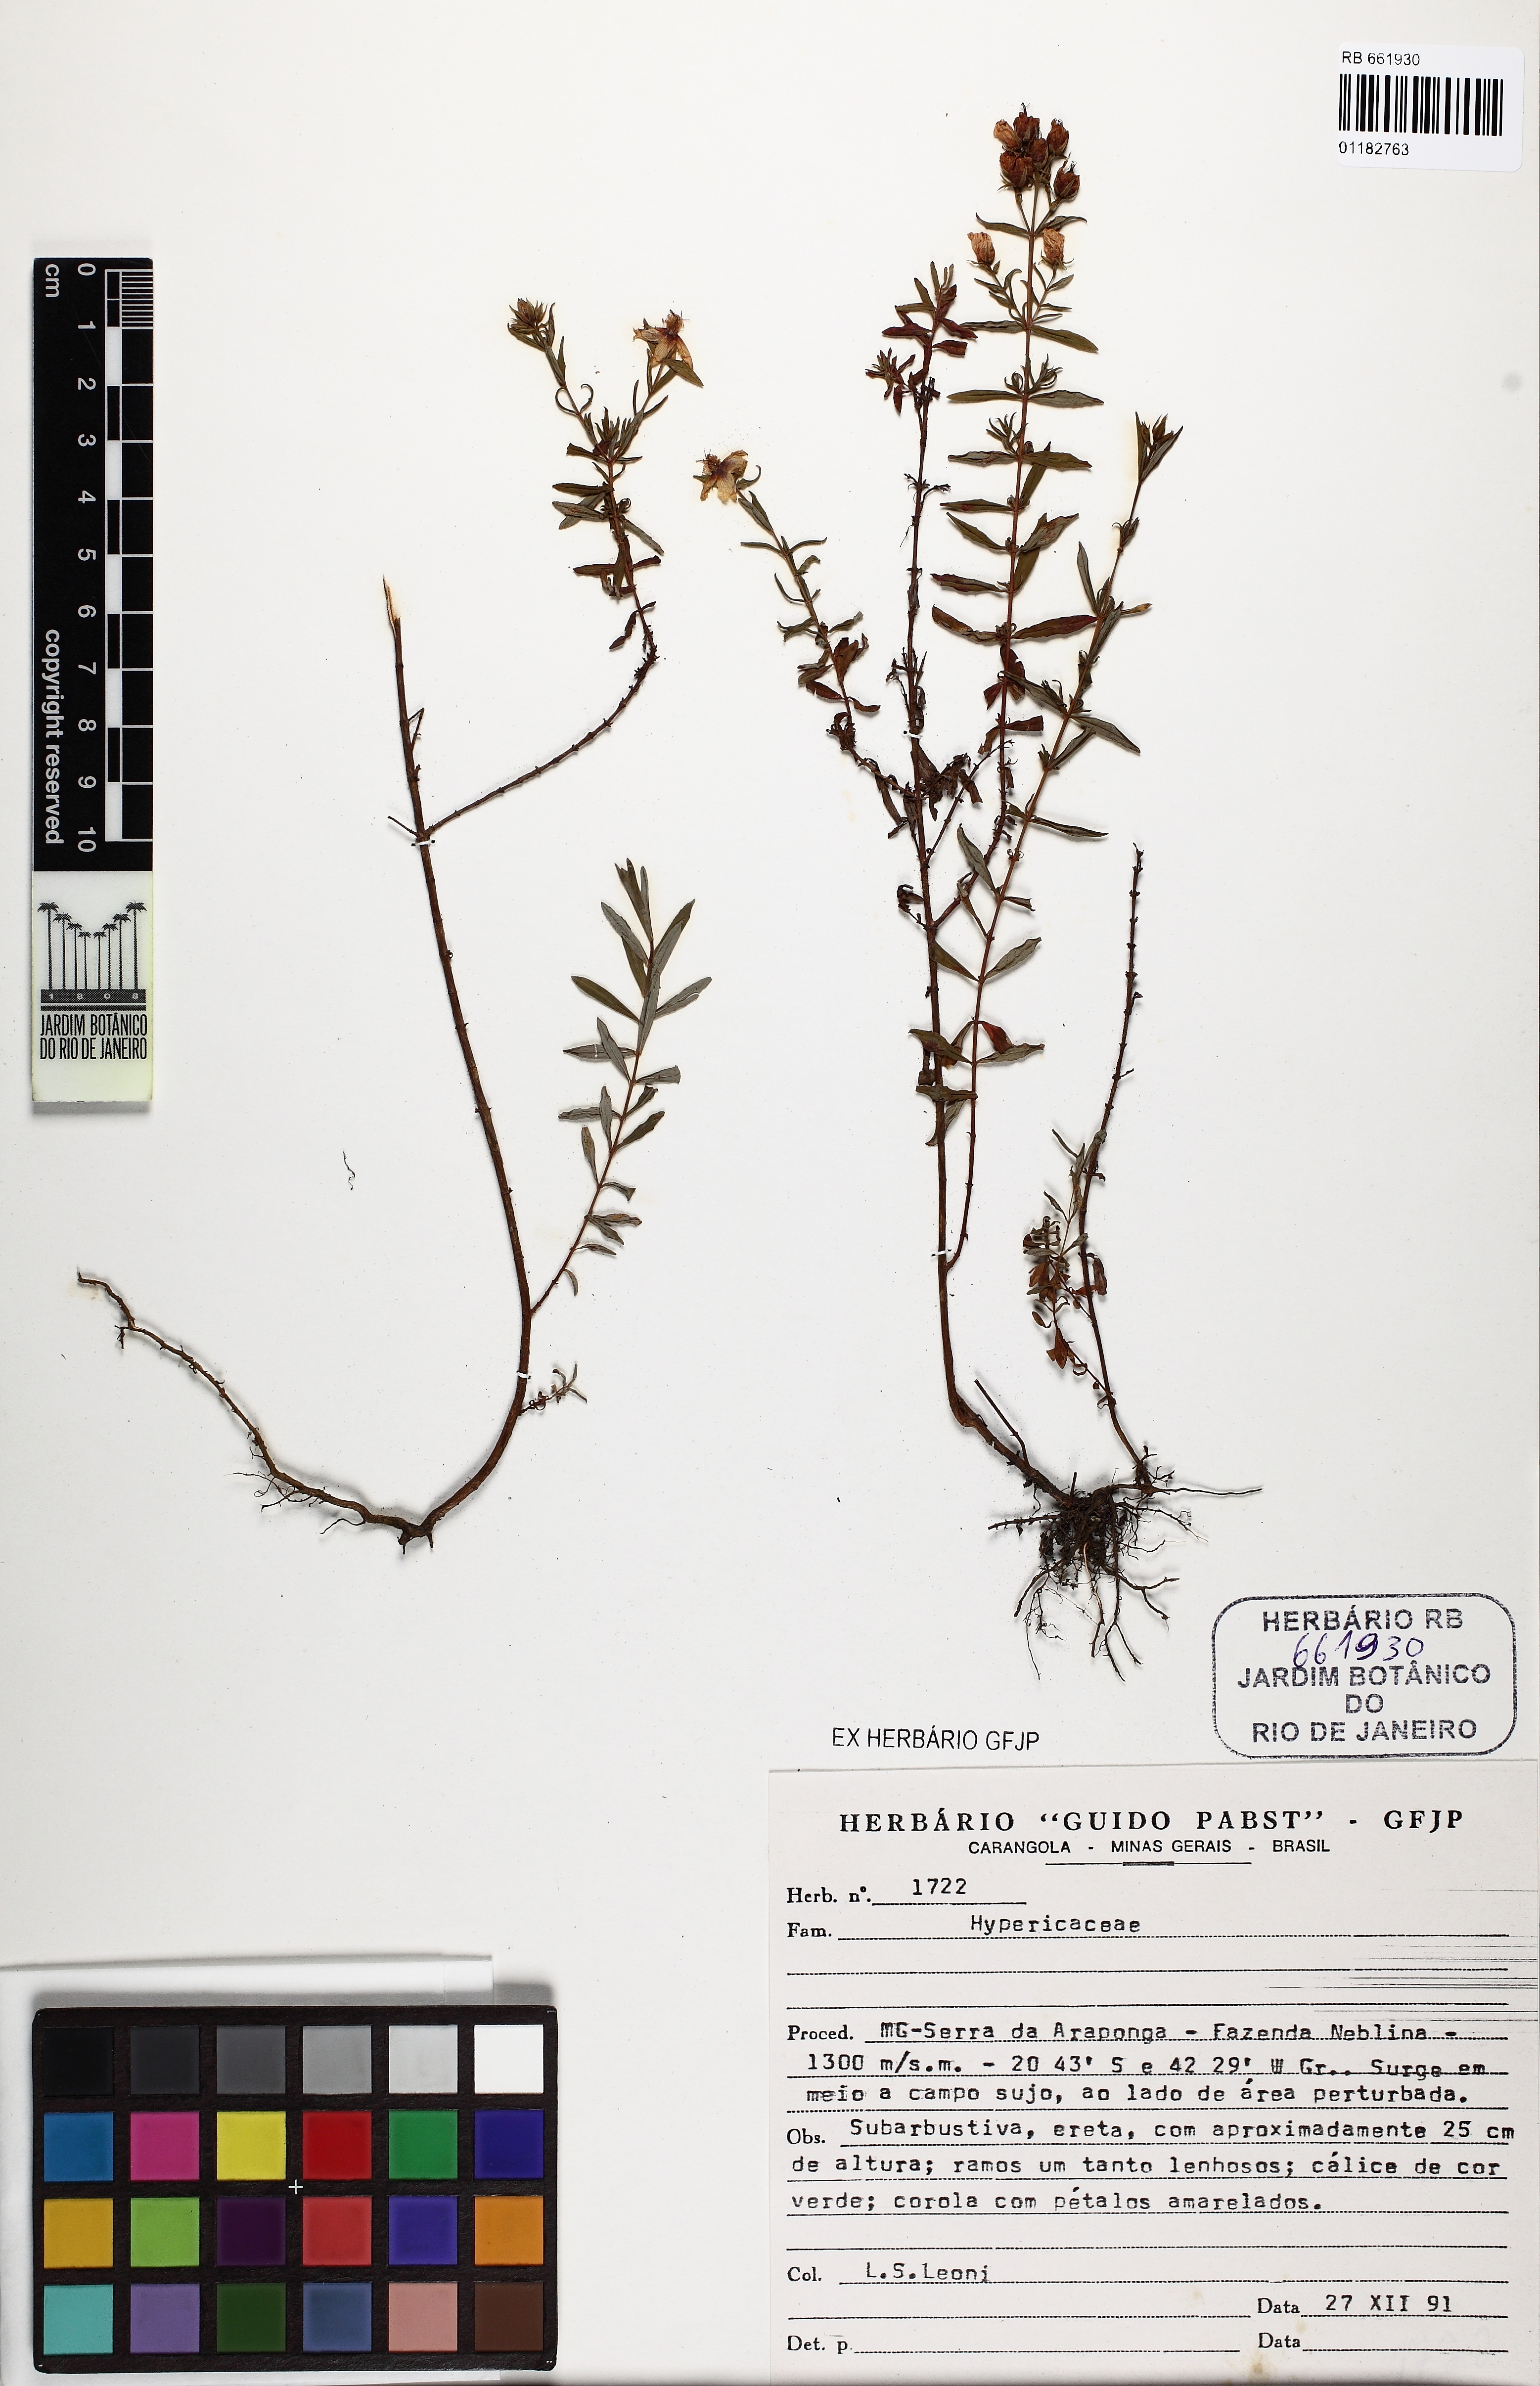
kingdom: Plantae
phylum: Tracheophyta
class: Magnoliopsida
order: Malpighiales
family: Hypericaceae
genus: Hypericum
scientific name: Hypericum brasiliense
